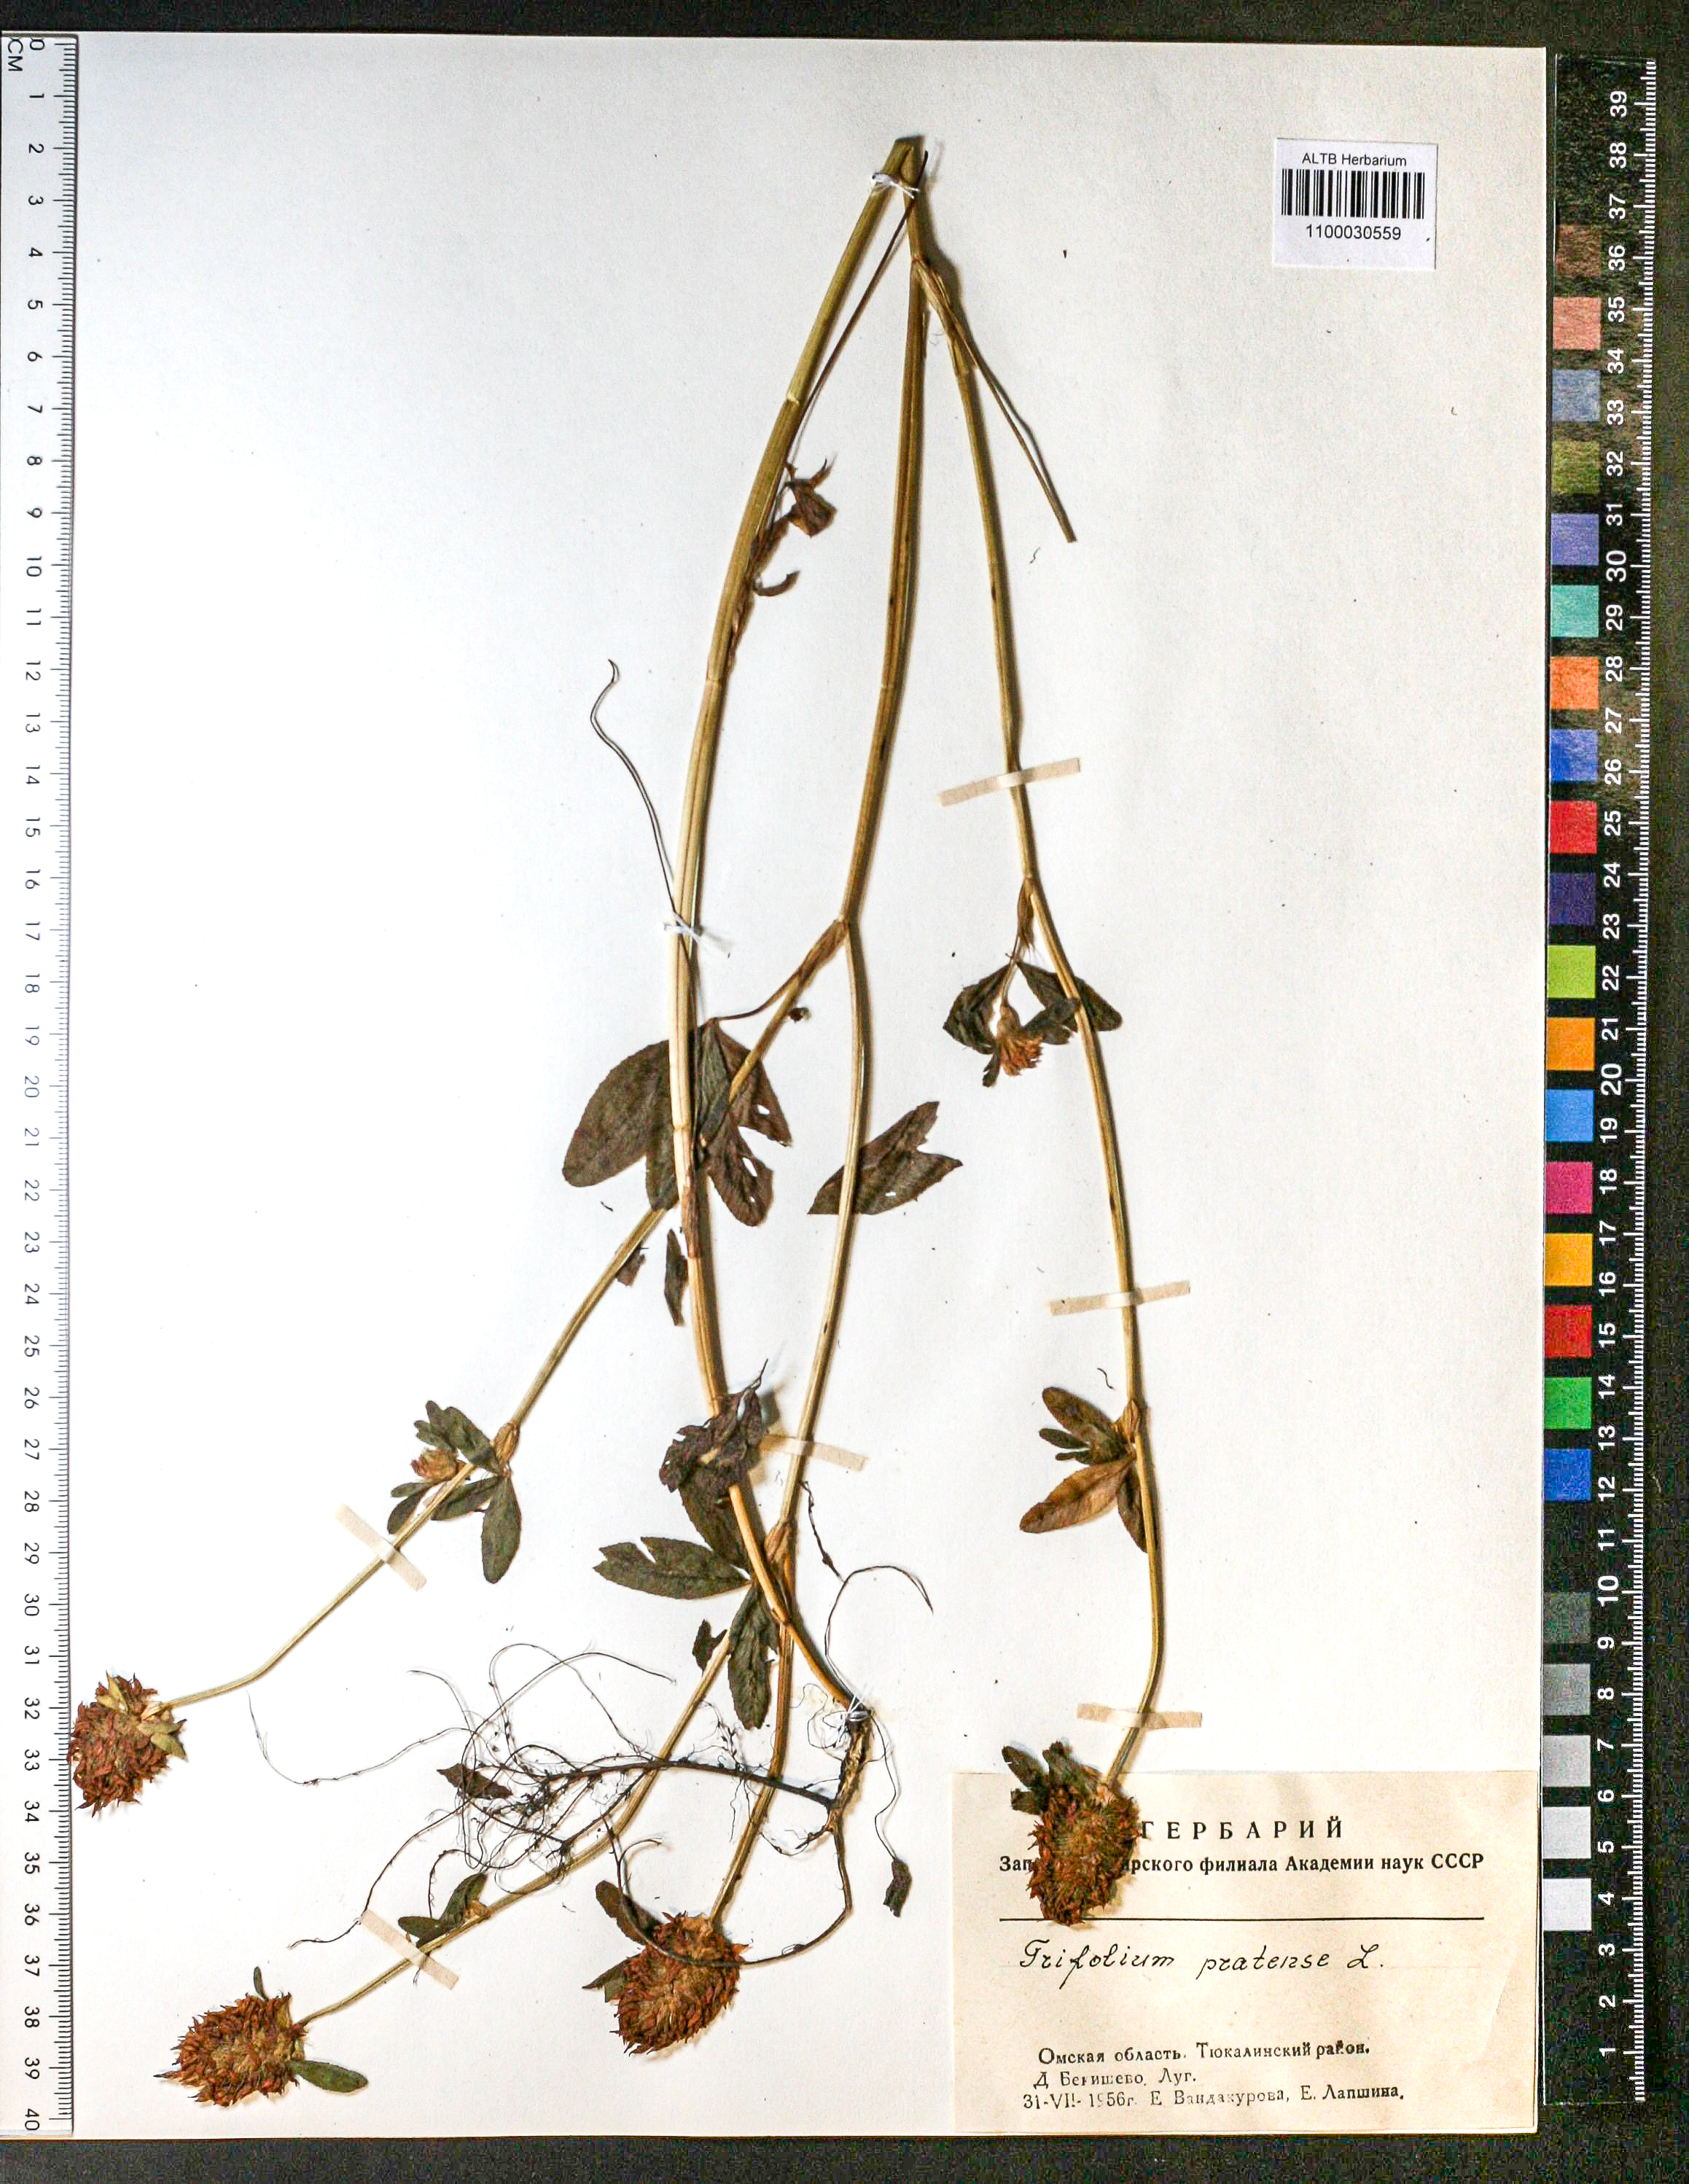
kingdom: Plantae
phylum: Tracheophyta
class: Magnoliopsida
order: Fabales
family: Fabaceae
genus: Trifolium
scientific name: Trifolium pratense
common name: Red clover
